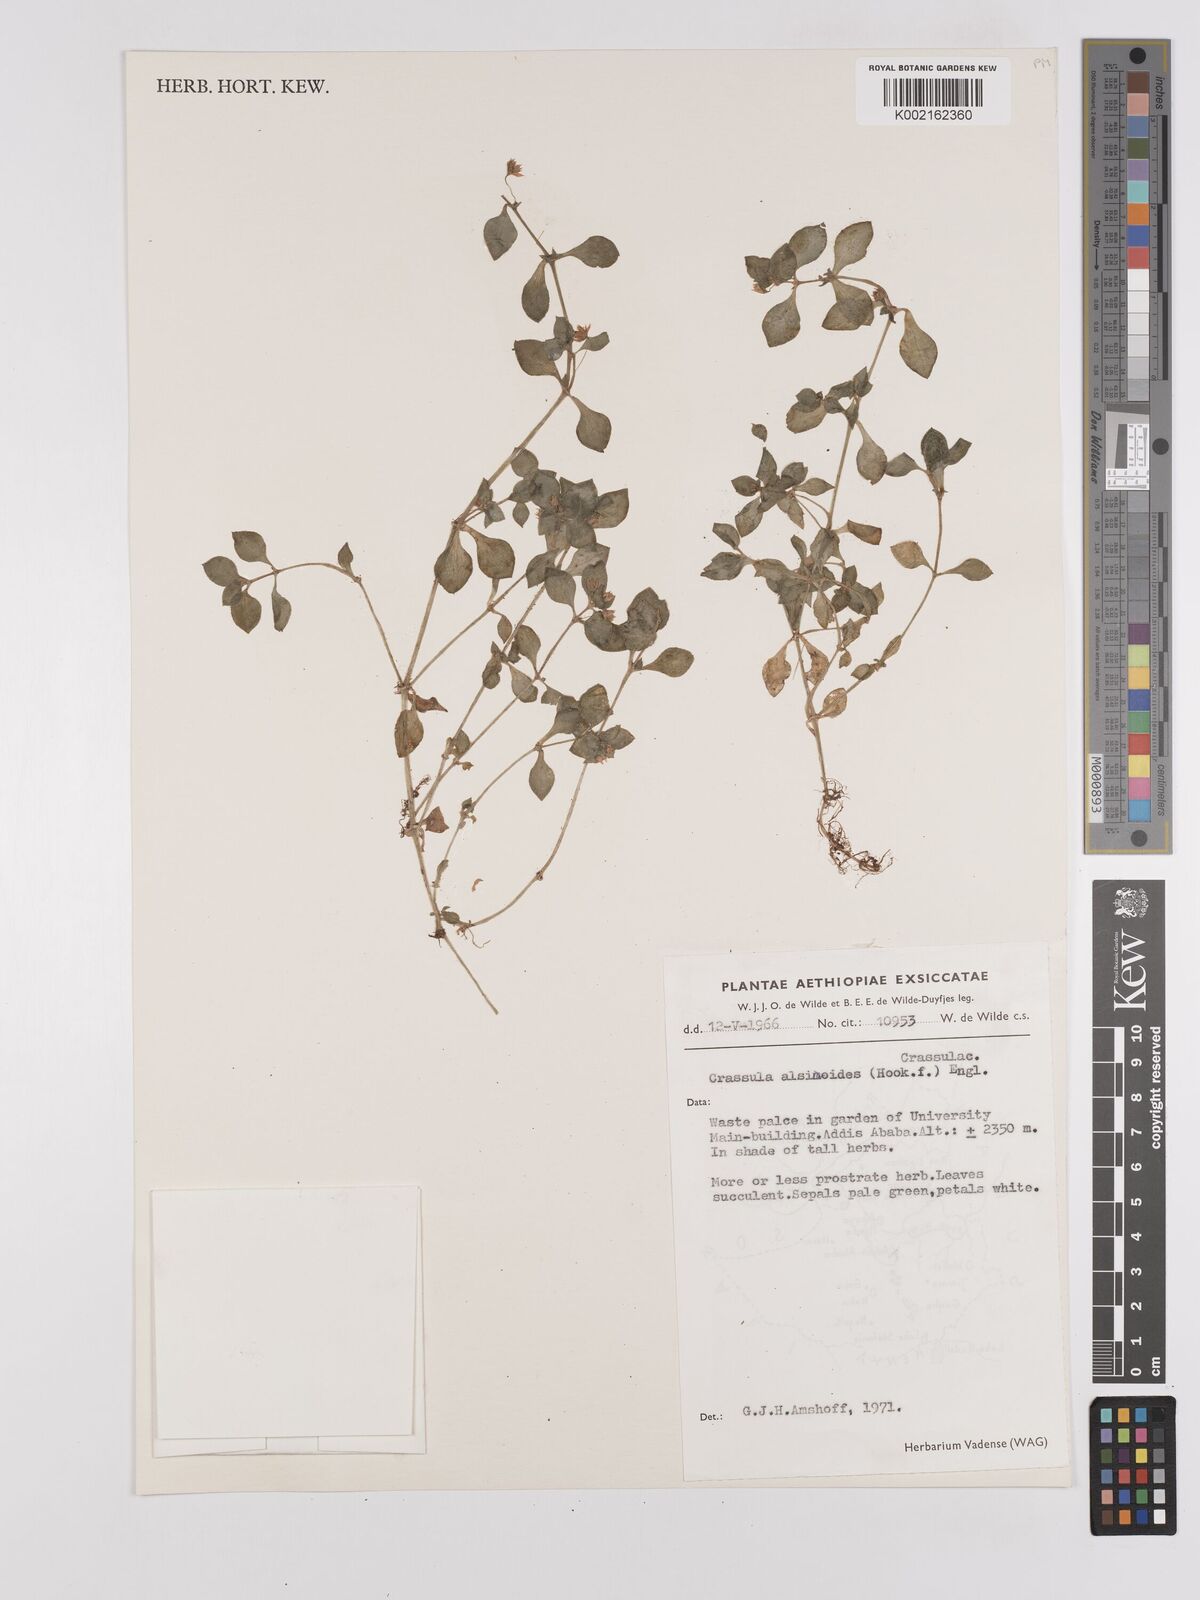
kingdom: Plantae
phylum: Tracheophyta
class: Magnoliopsida
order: Saxifragales
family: Crassulaceae
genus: Crassula
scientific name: Crassula alsinoides
